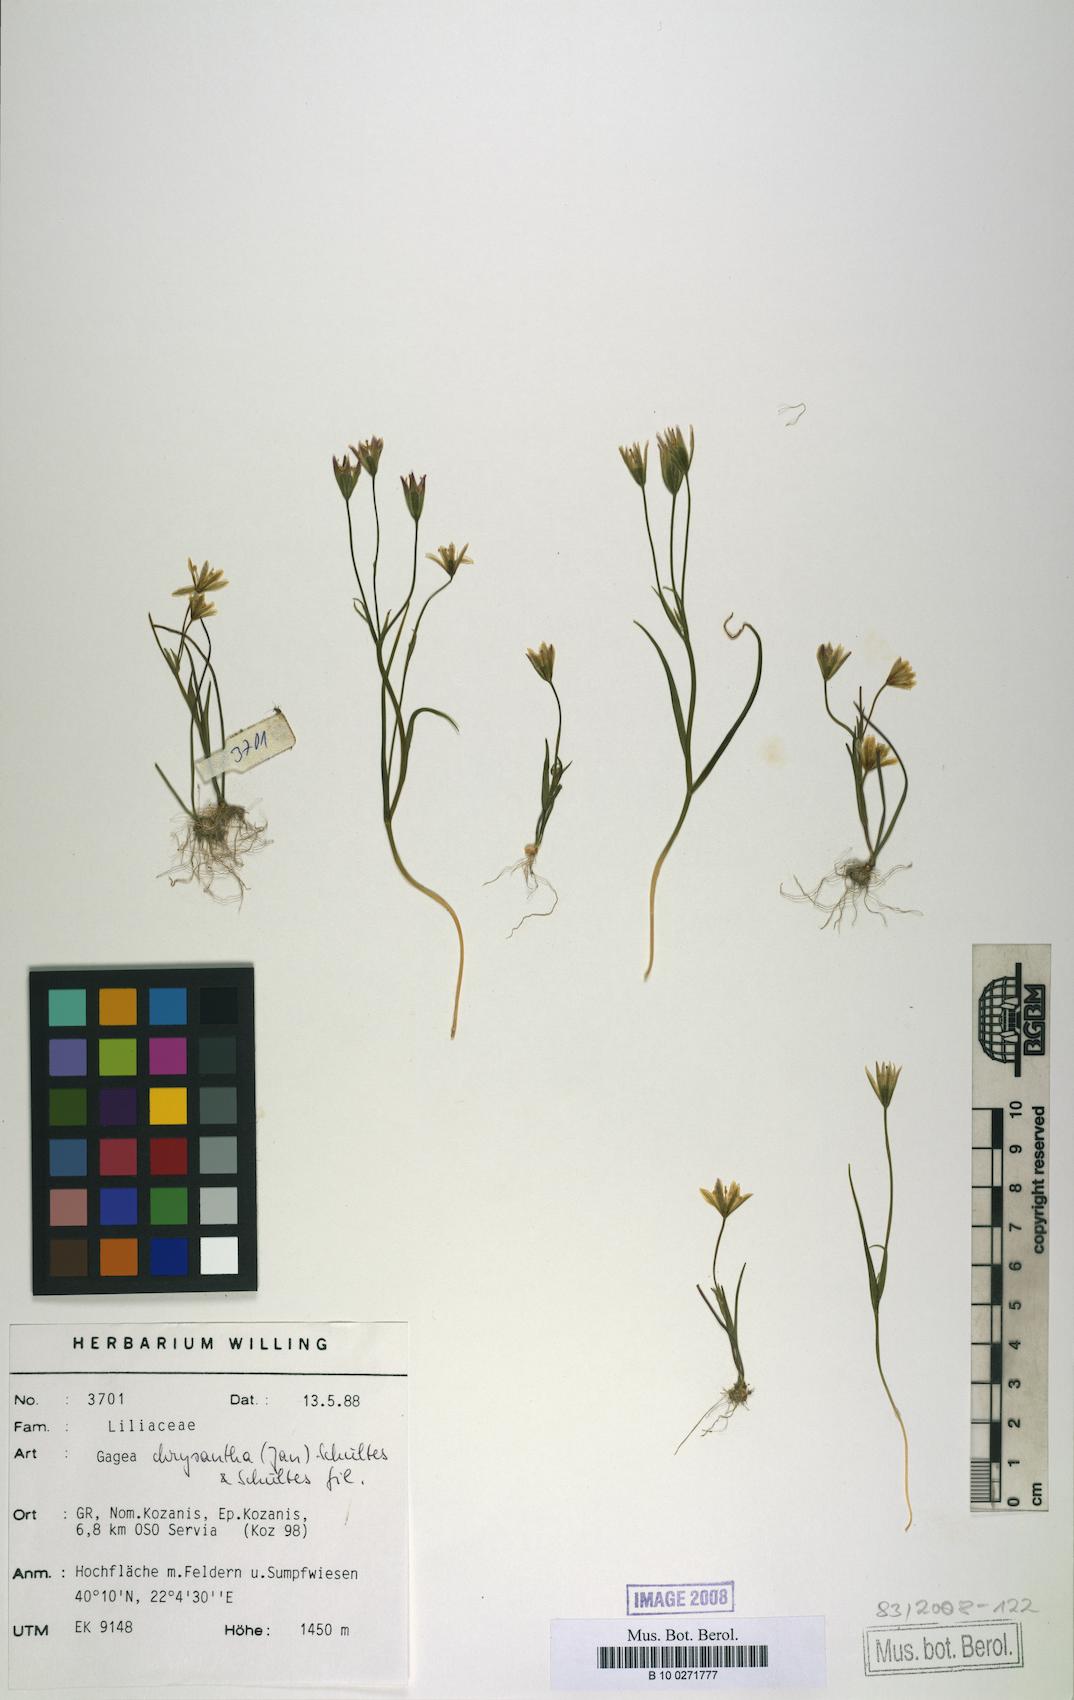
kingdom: Plantae
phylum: Tracheophyta
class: Liliopsida
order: Liliales
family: Liliaceae
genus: Gagea
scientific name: Gagea chrysantha
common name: Golden gagea
